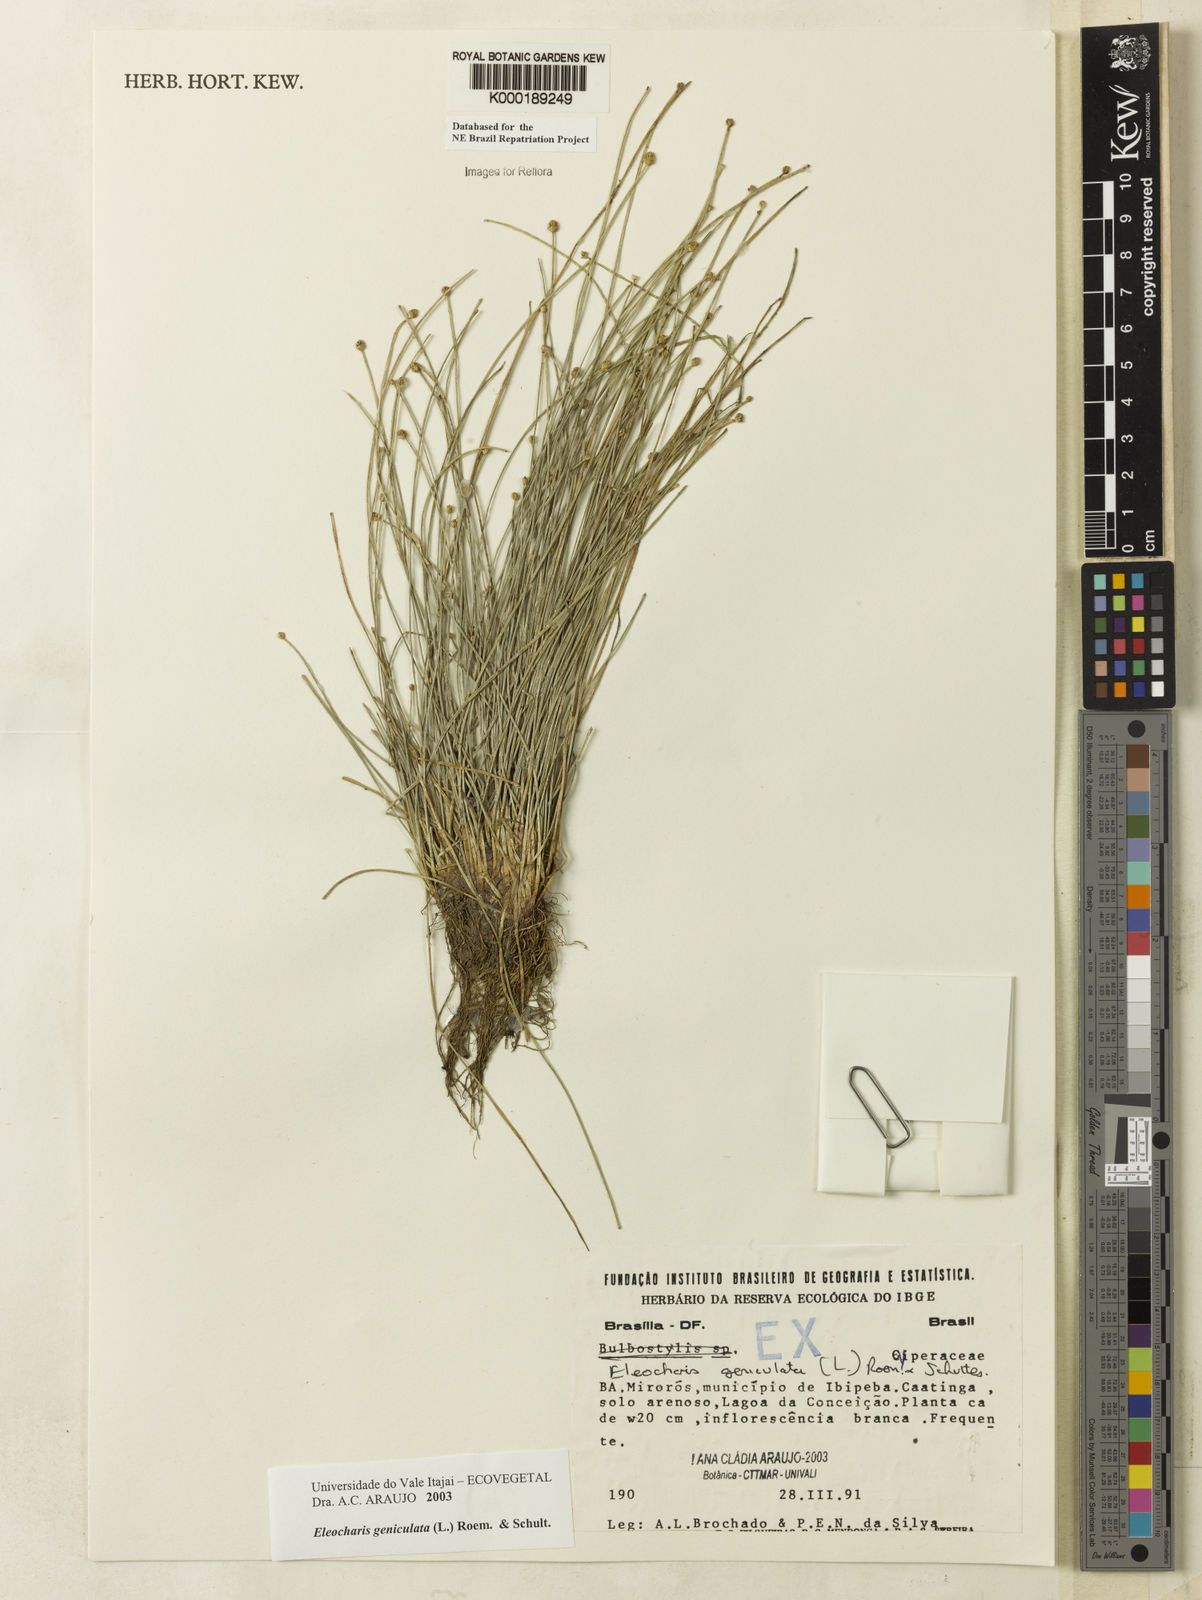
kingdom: Plantae
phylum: Tracheophyta
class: Liliopsida
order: Poales
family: Cyperaceae
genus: Eleocharis
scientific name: Eleocharis geniculata
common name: Canada spikesedge
